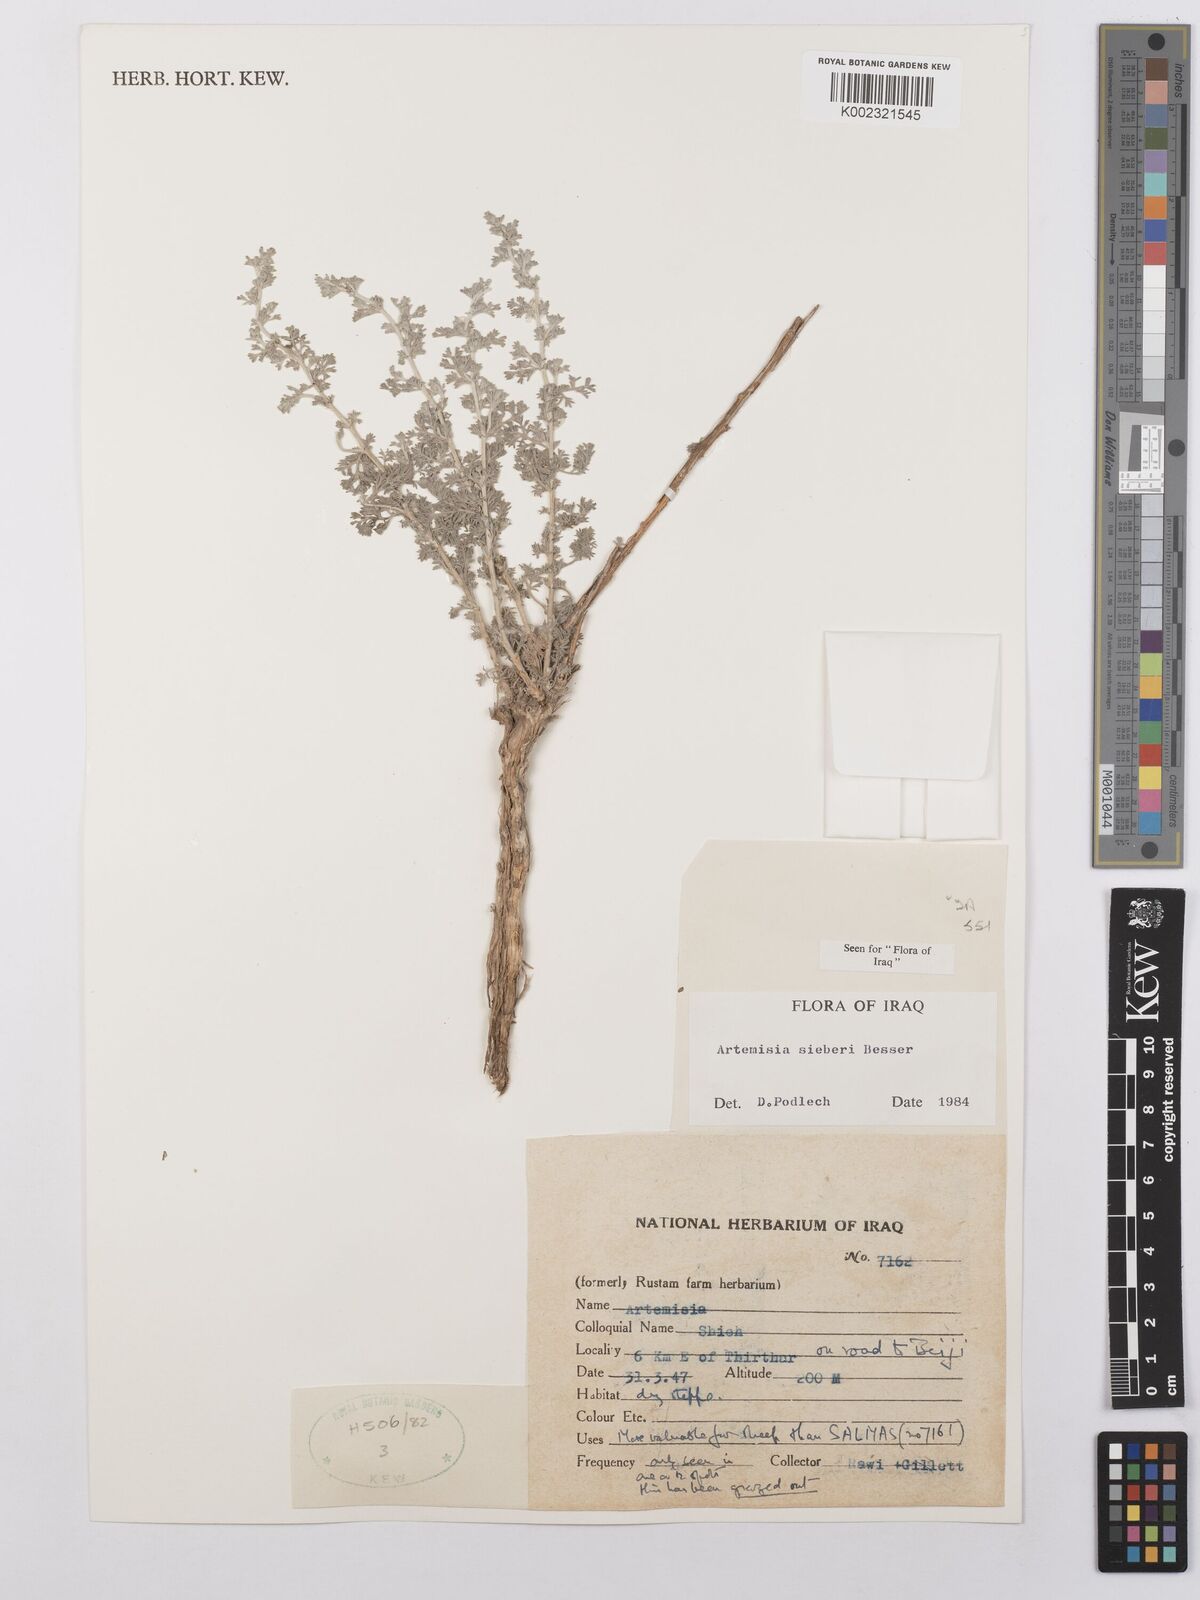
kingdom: Plantae
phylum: Tracheophyta
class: Magnoliopsida
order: Asterales
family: Asteraceae
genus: Artemisia
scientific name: Artemisia sieberi
